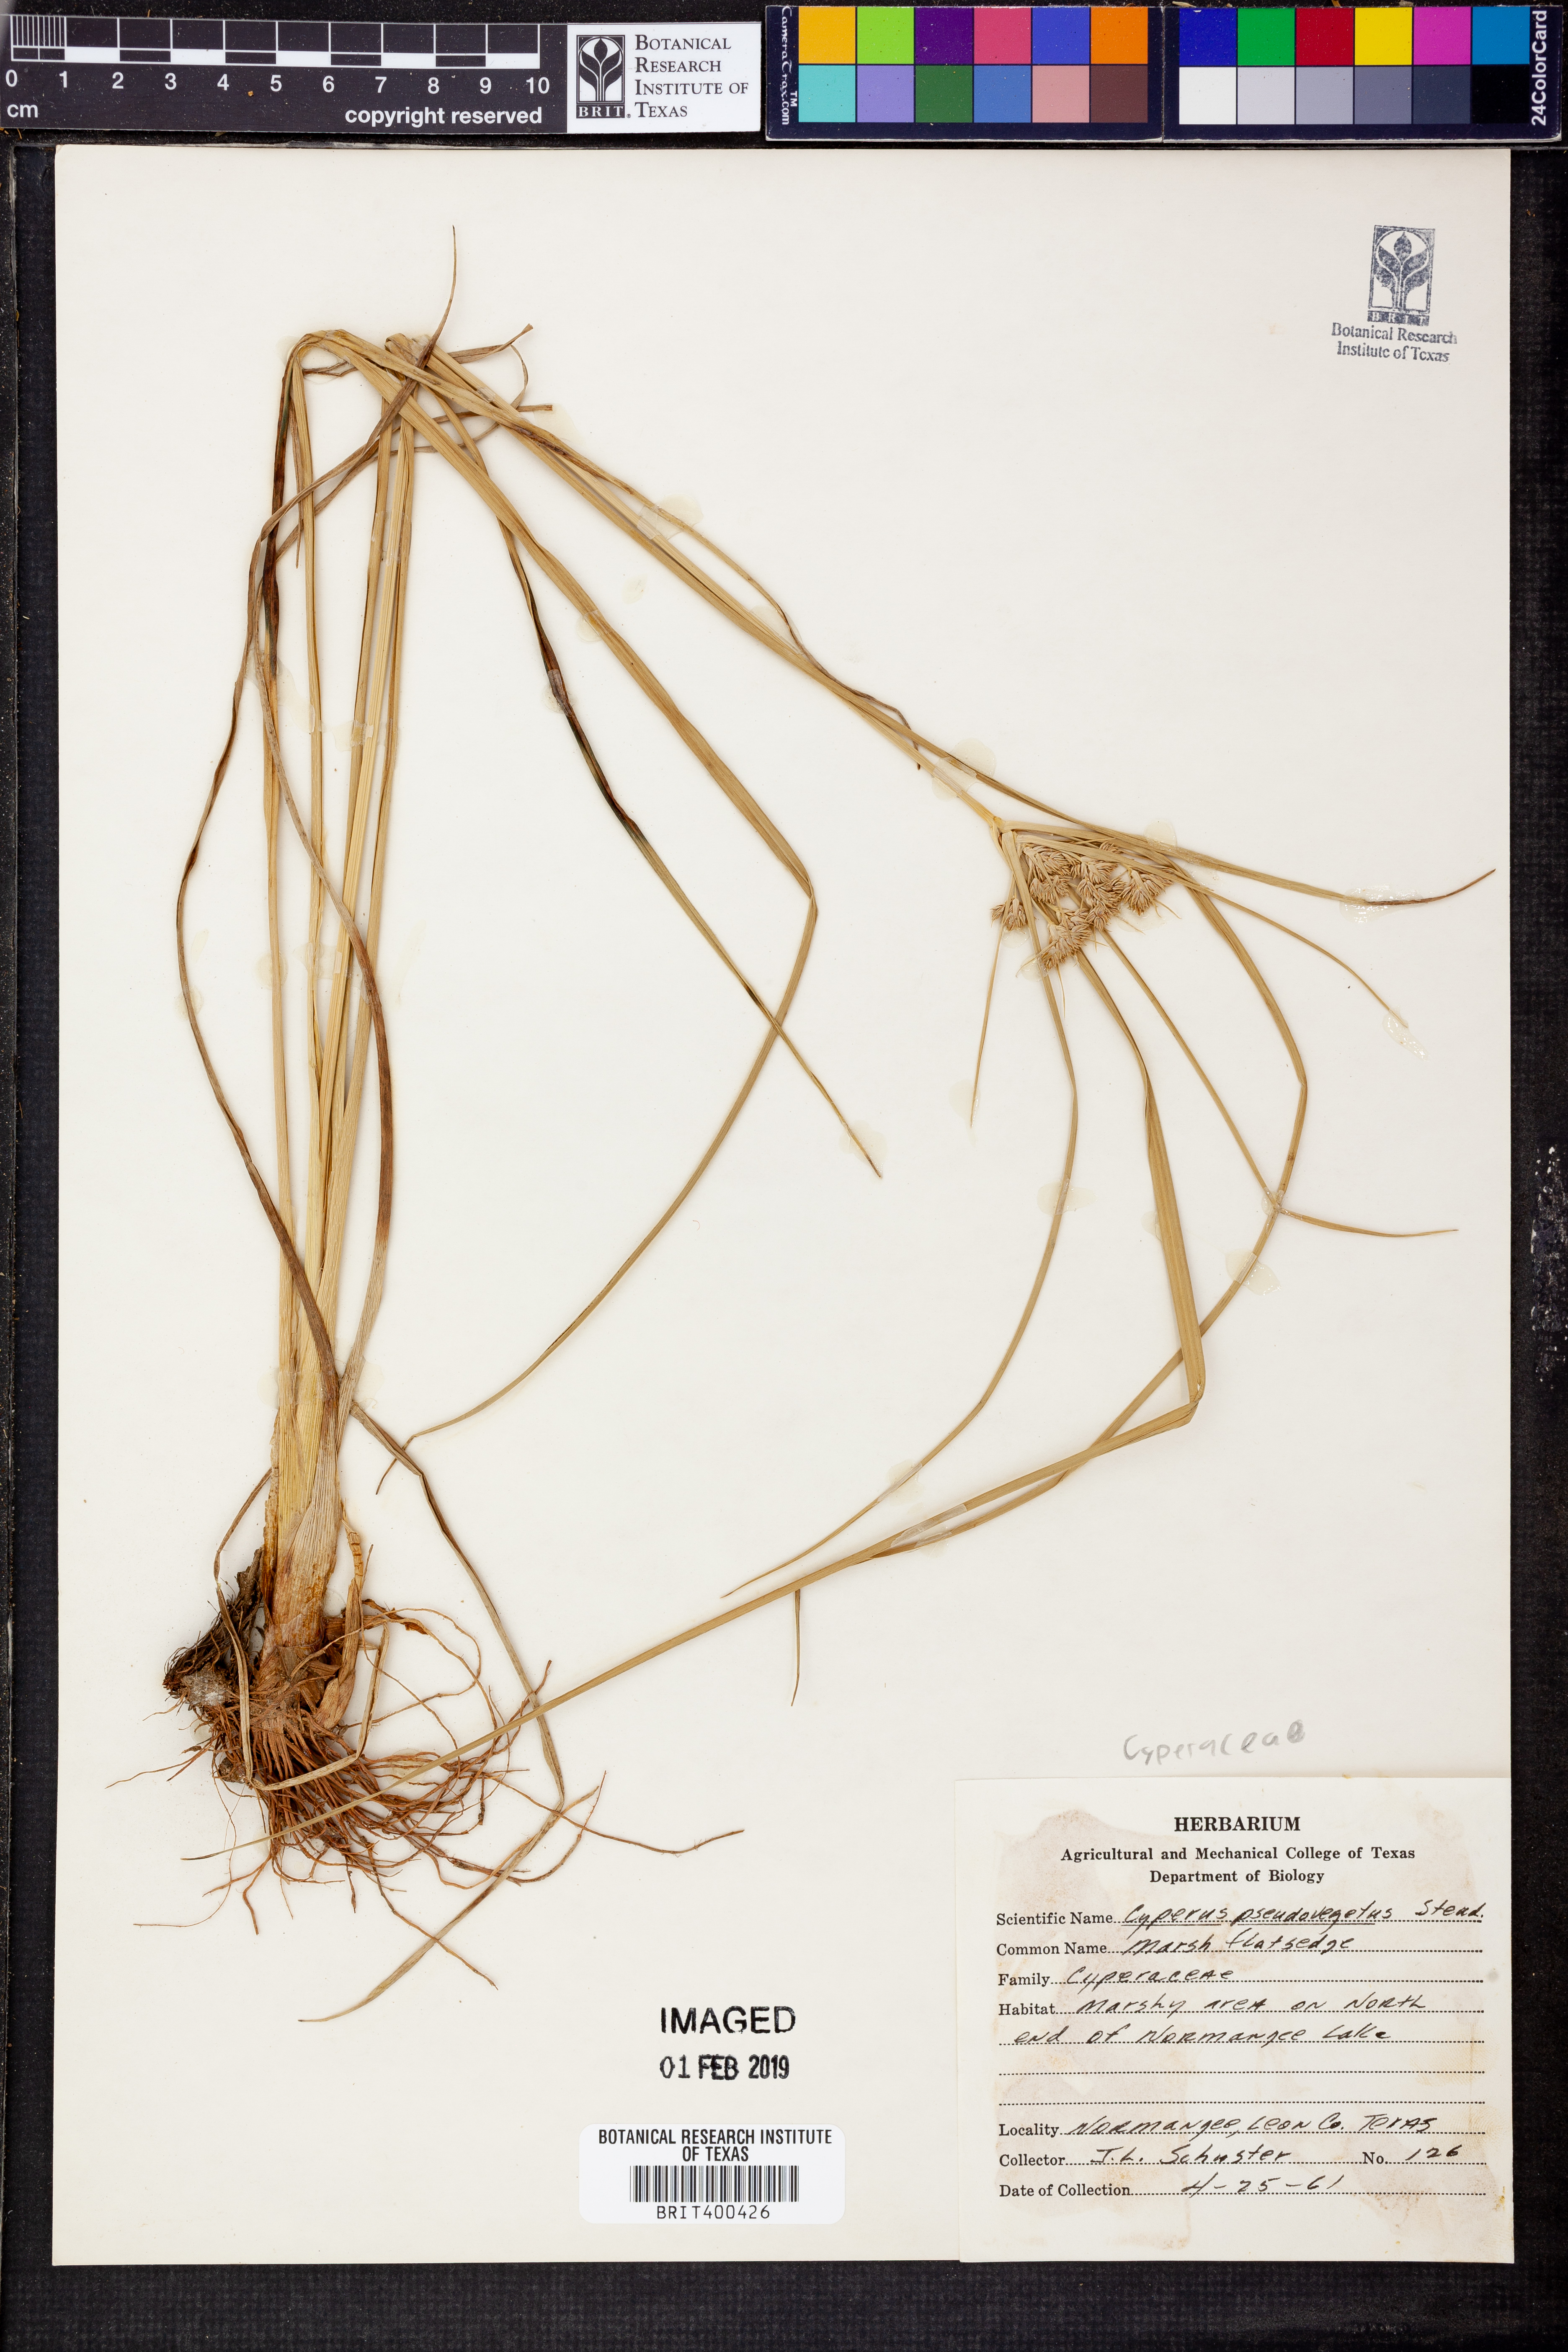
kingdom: Plantae
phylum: Tracheophyta
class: Liliopsida
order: Poales
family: Cyperaceae
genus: Cyperus
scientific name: Cyperus pseudovegetus
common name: Marsh flat sedge
